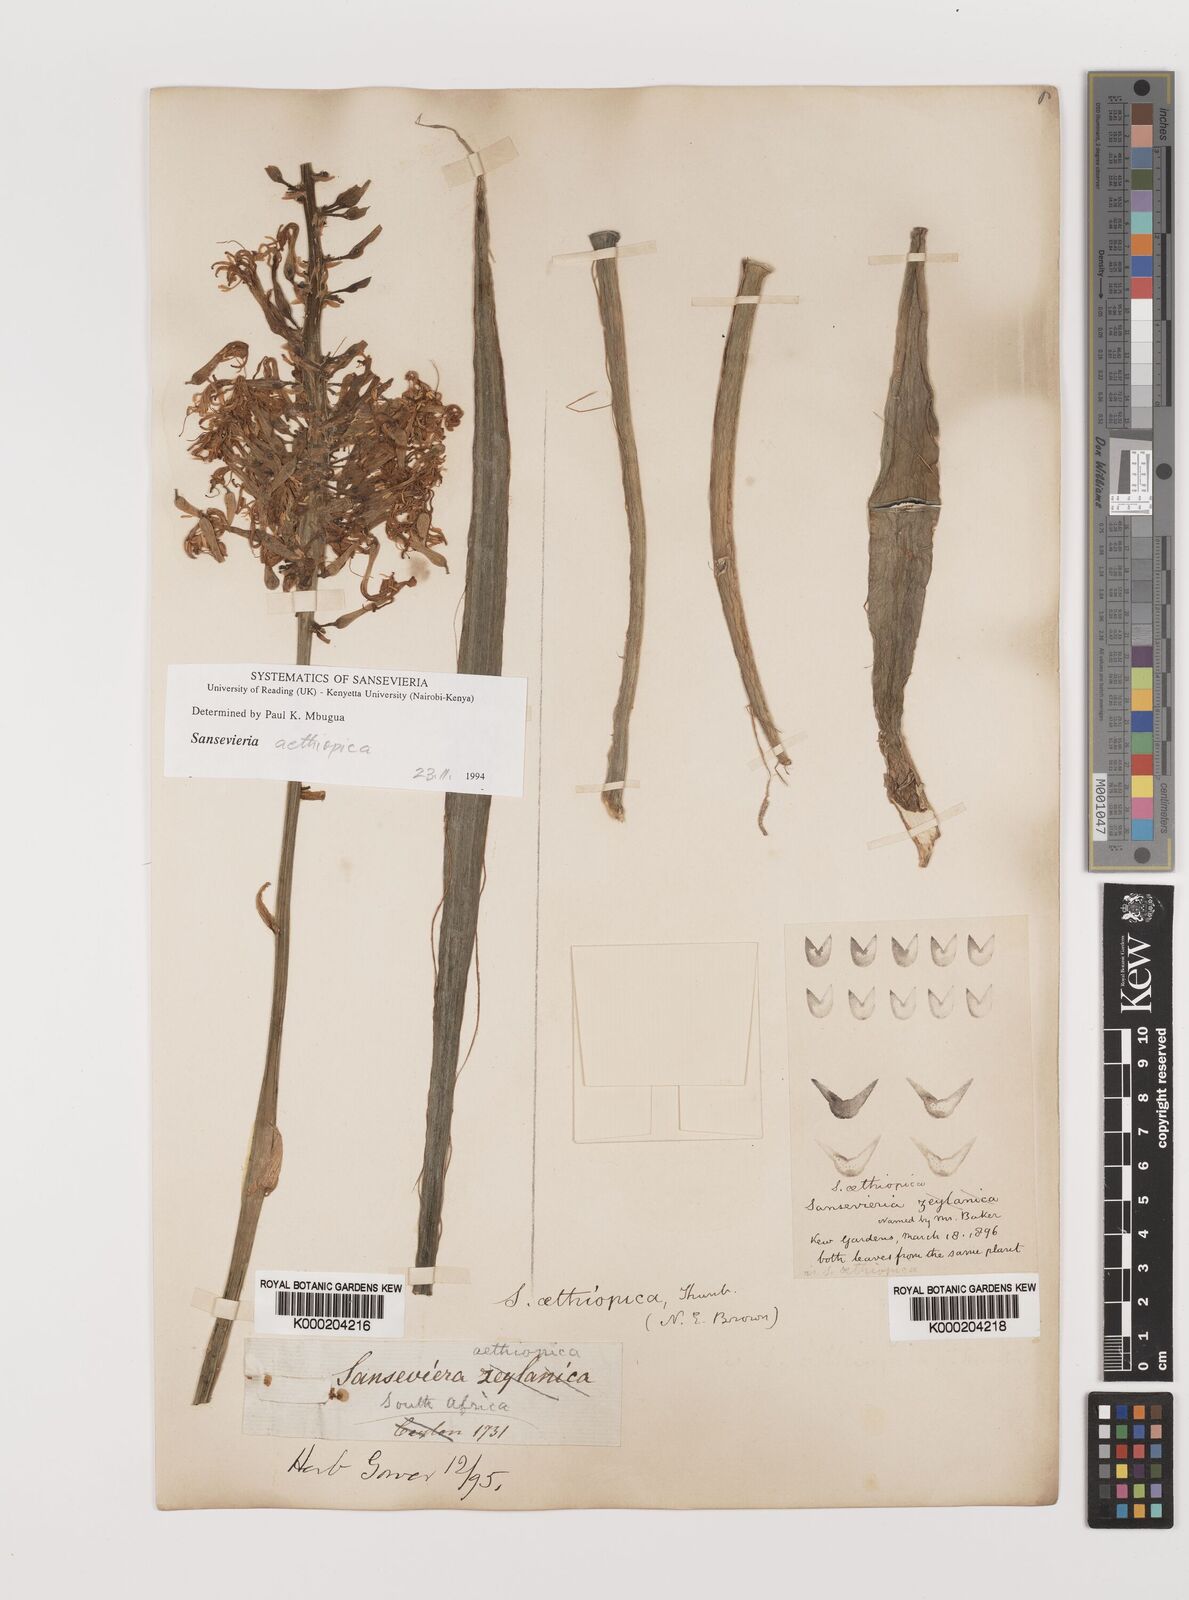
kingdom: Plantae
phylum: Tracheophyta
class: Liliopsida
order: Asparagales
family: Asparagaceae
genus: Dracaena
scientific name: Dracaena aethiopica
